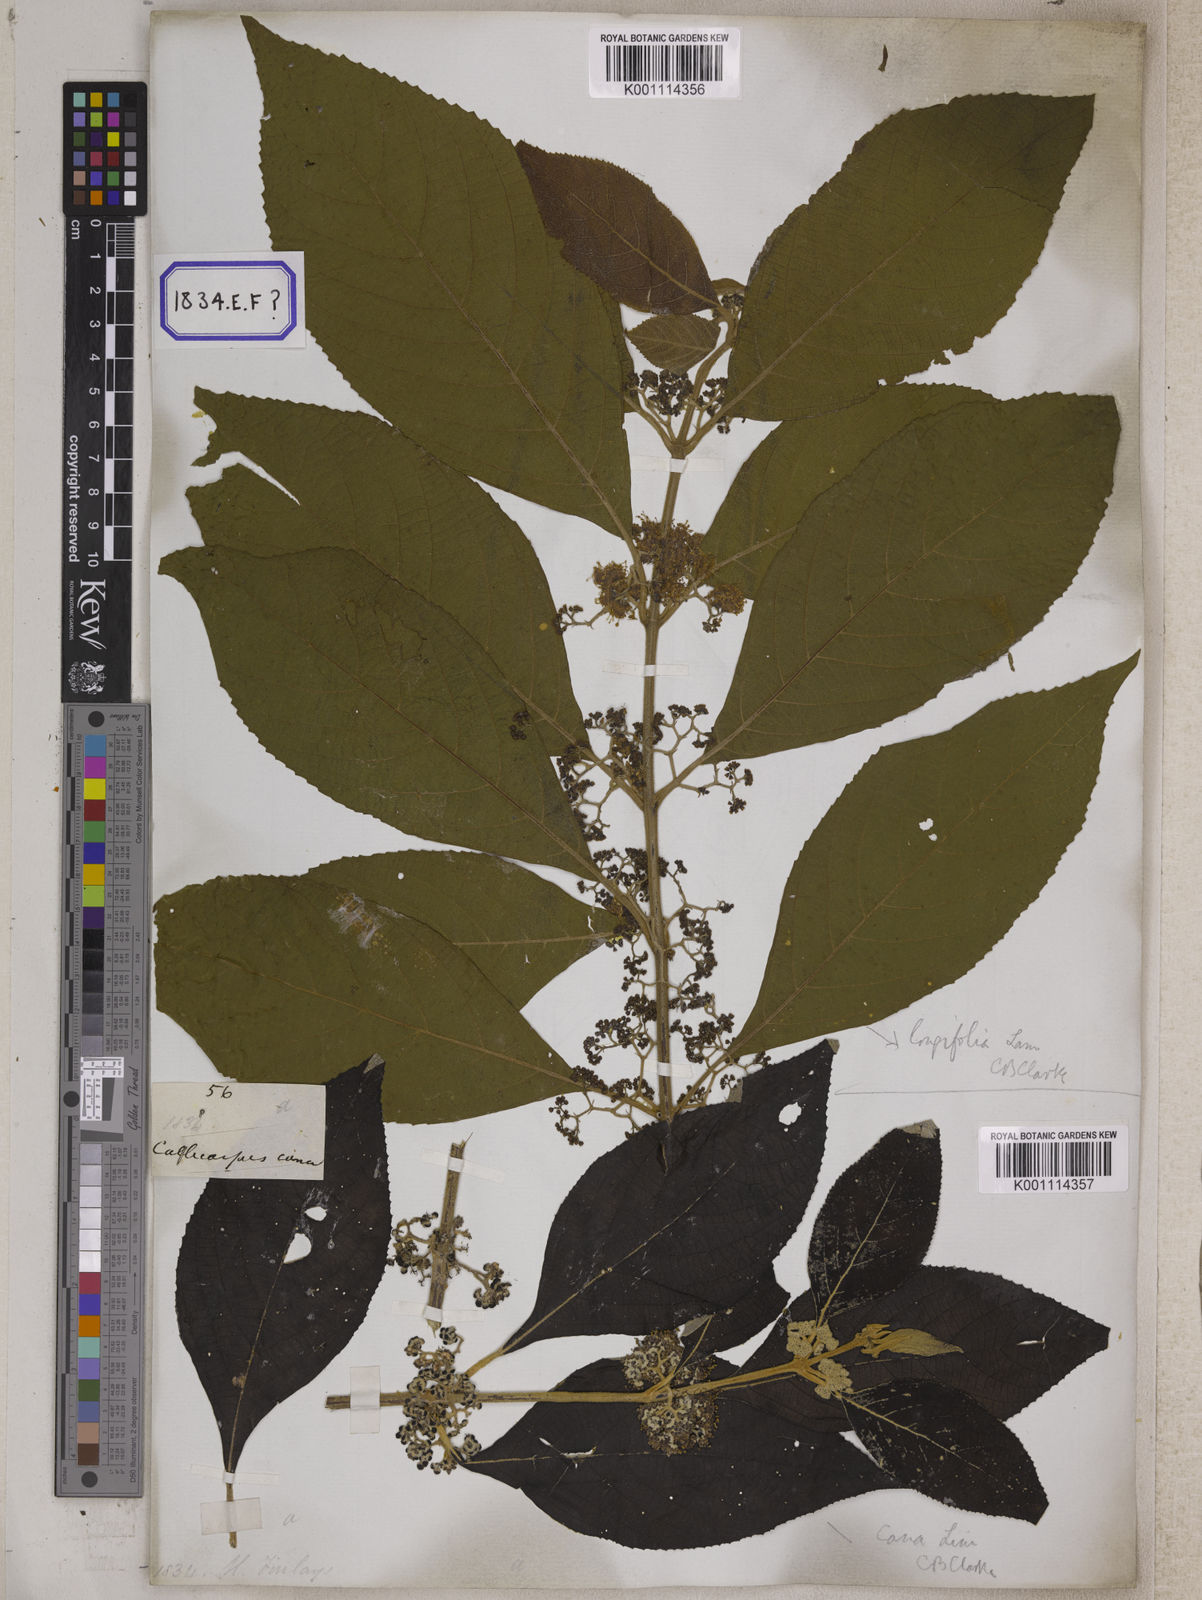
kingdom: Plantae
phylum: Tracheophyta
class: Magnoliopsida
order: Lamiales
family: Lamiaceae
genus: Callicarpa
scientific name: Callicarpa candicans
